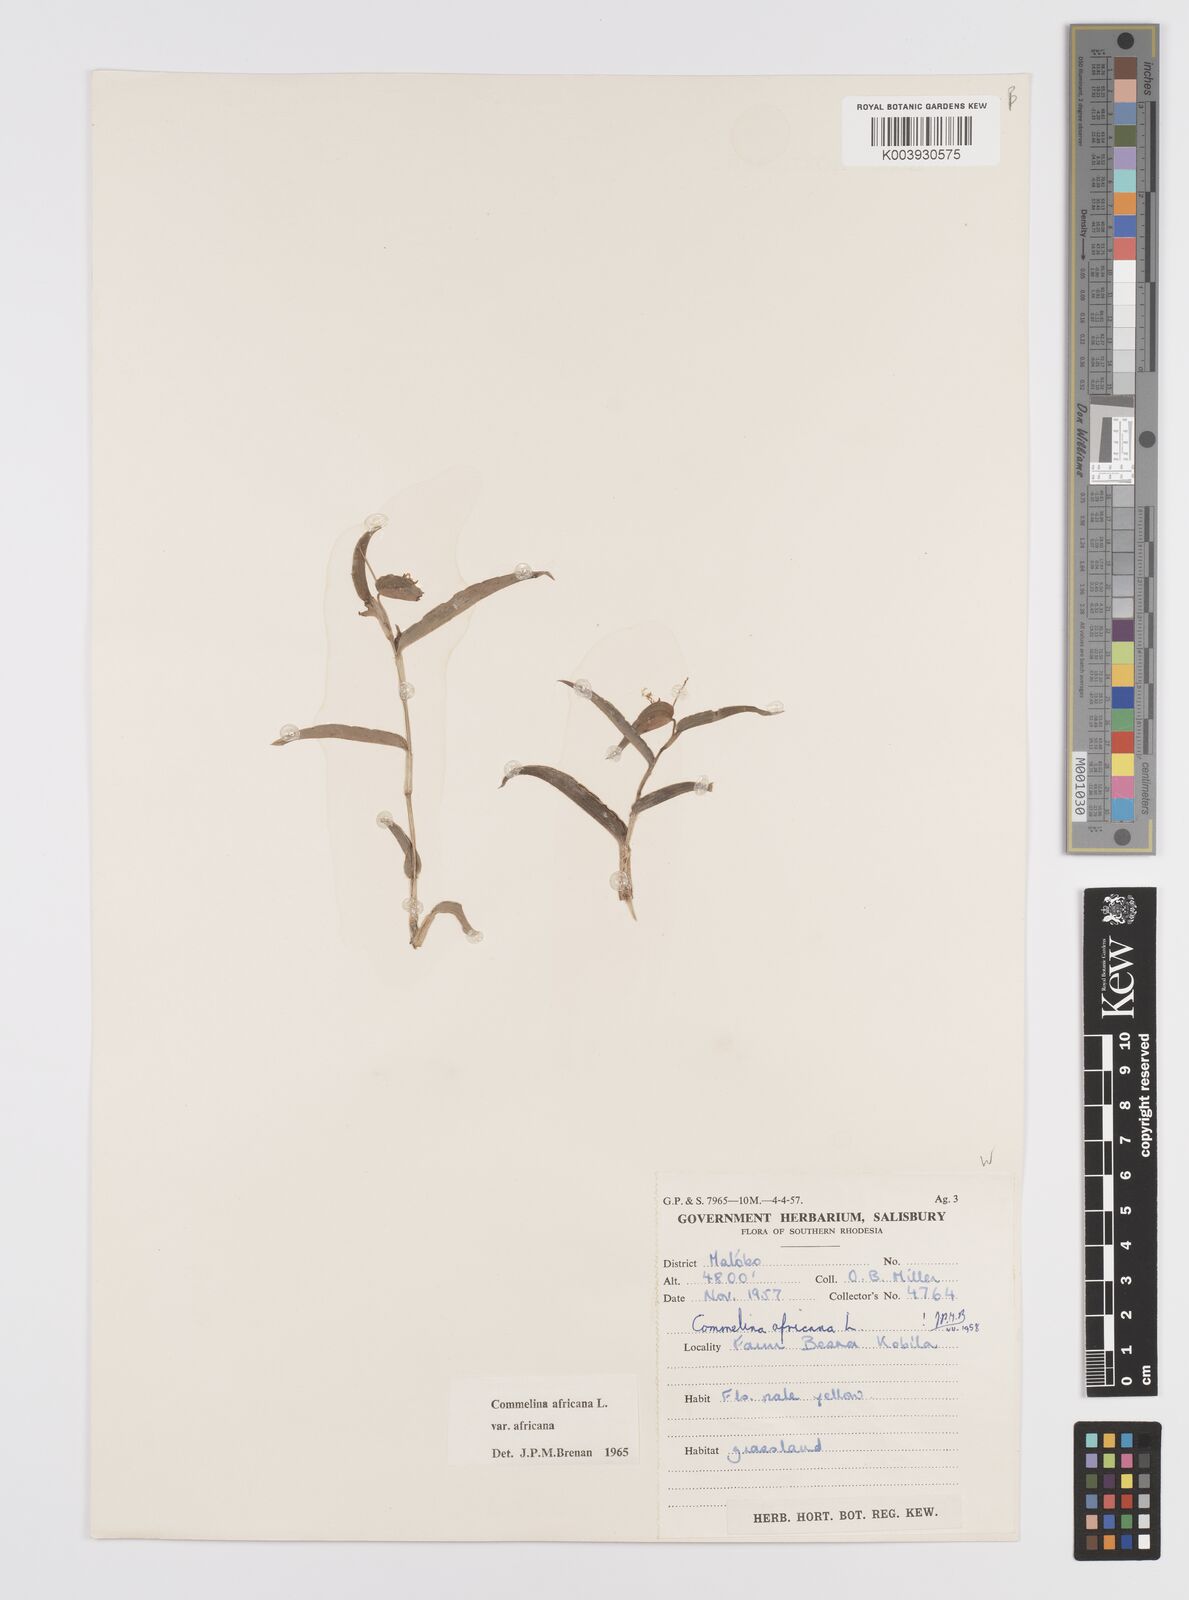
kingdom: Plantae
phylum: Tracheophyta
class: Liliopsida
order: Commelinales
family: Commelinaceae
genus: Commelina
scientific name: Commelina africana
